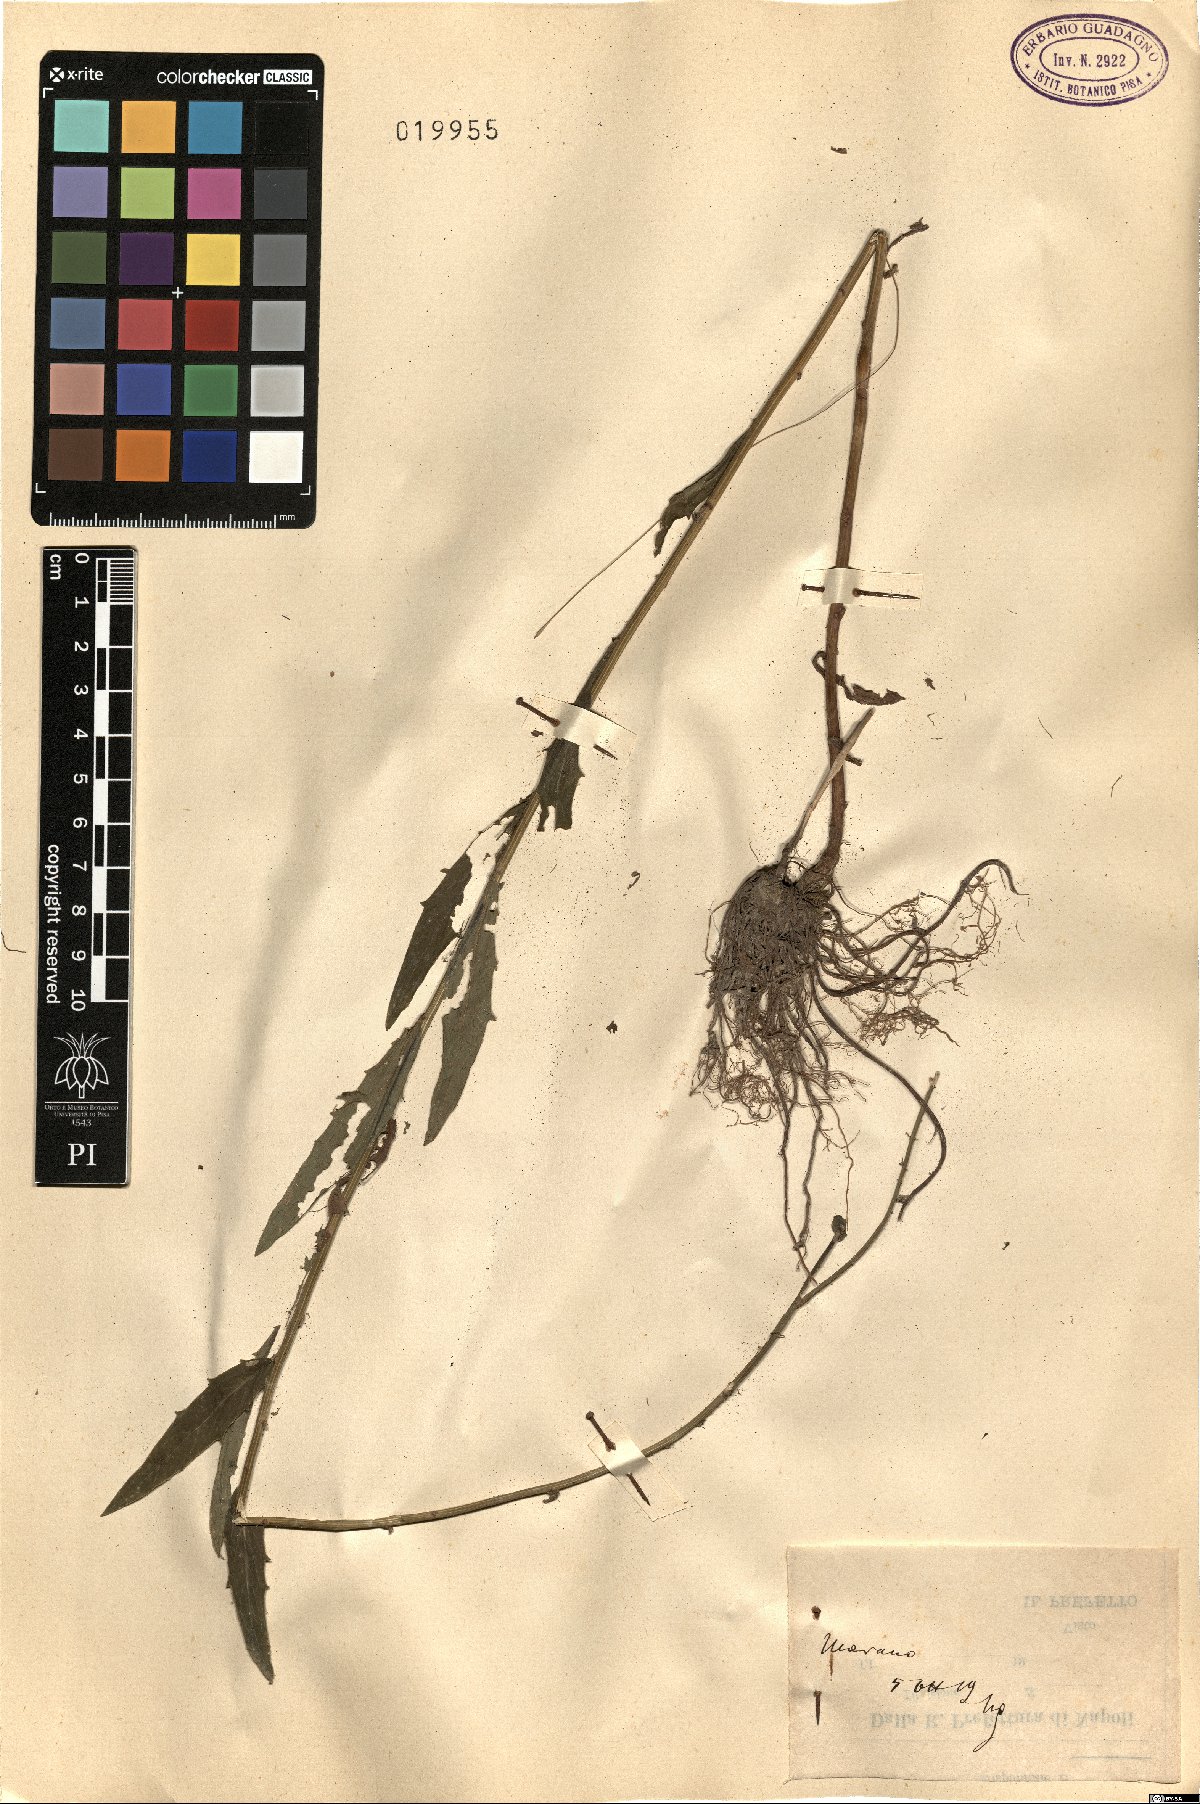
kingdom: Plantae
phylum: Tracheophyta
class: Magnoliopsida
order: Asterales
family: Asteraceae
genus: Hieracium
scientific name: Hieracium
